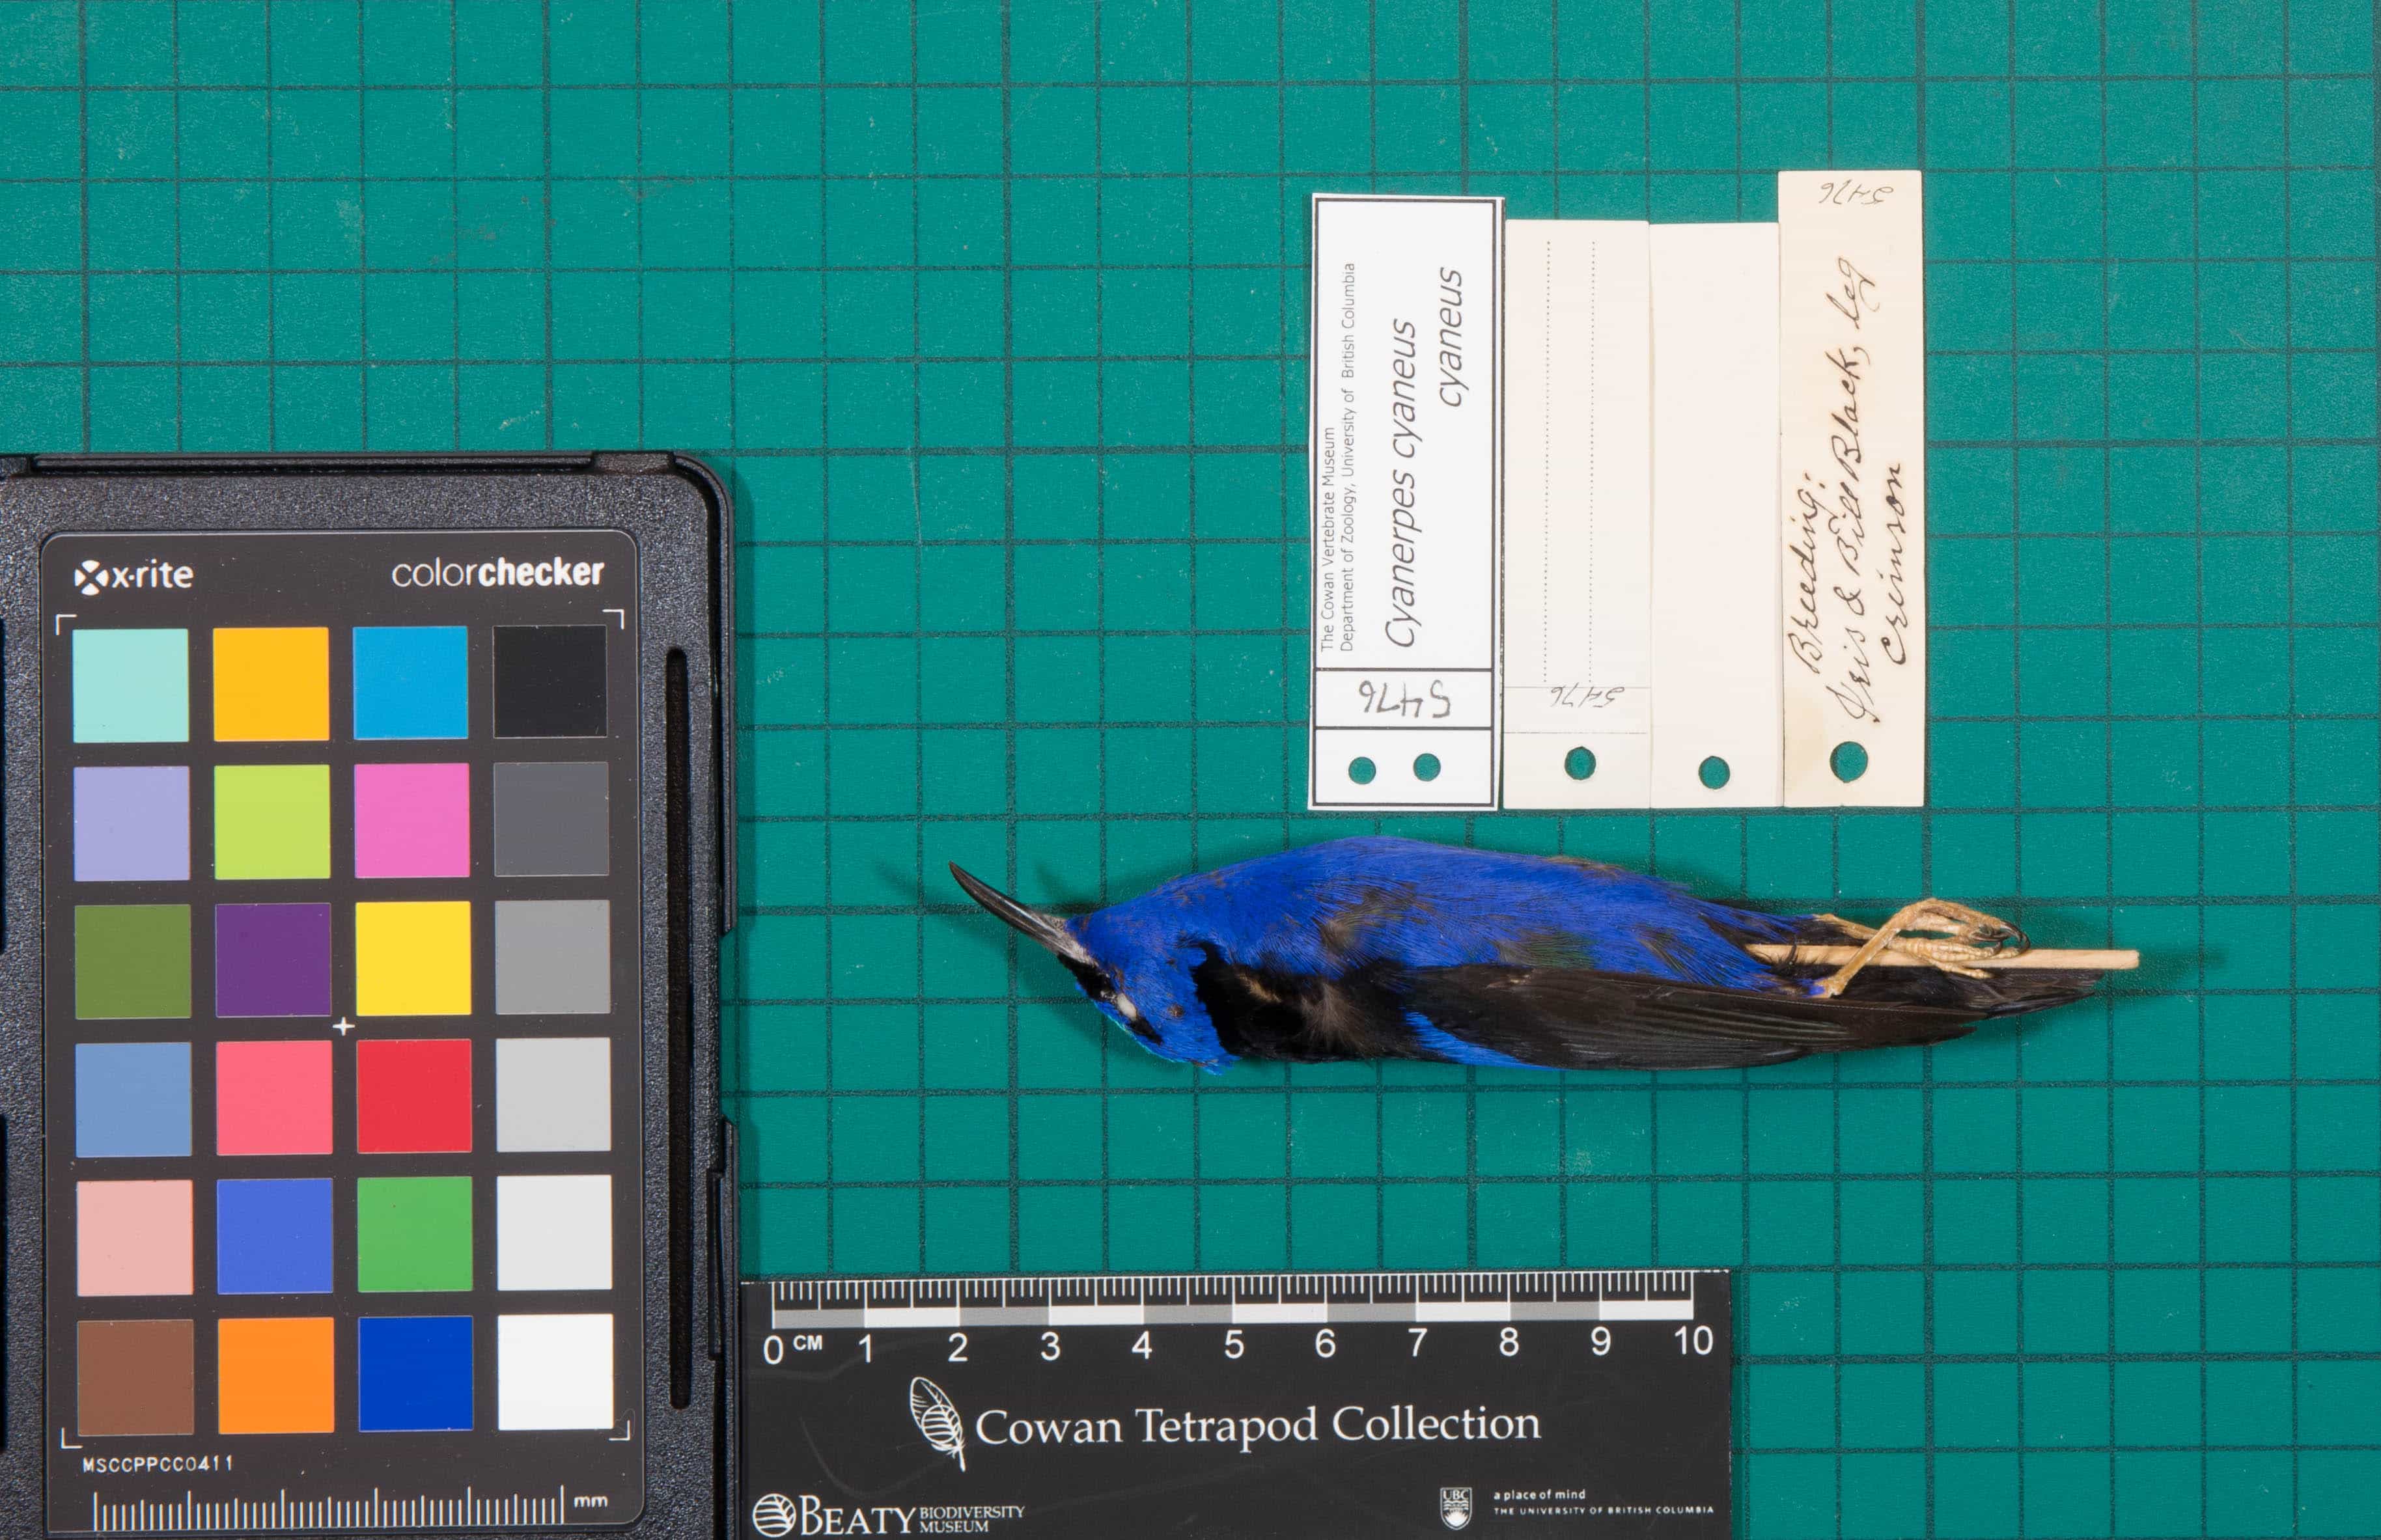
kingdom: Animalia
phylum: Chordata
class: Aves
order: Passeriformes
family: Thraupidae
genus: Cyanerpes
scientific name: Cyanerpes cyaneus
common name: Red-legged Honeycreeper
